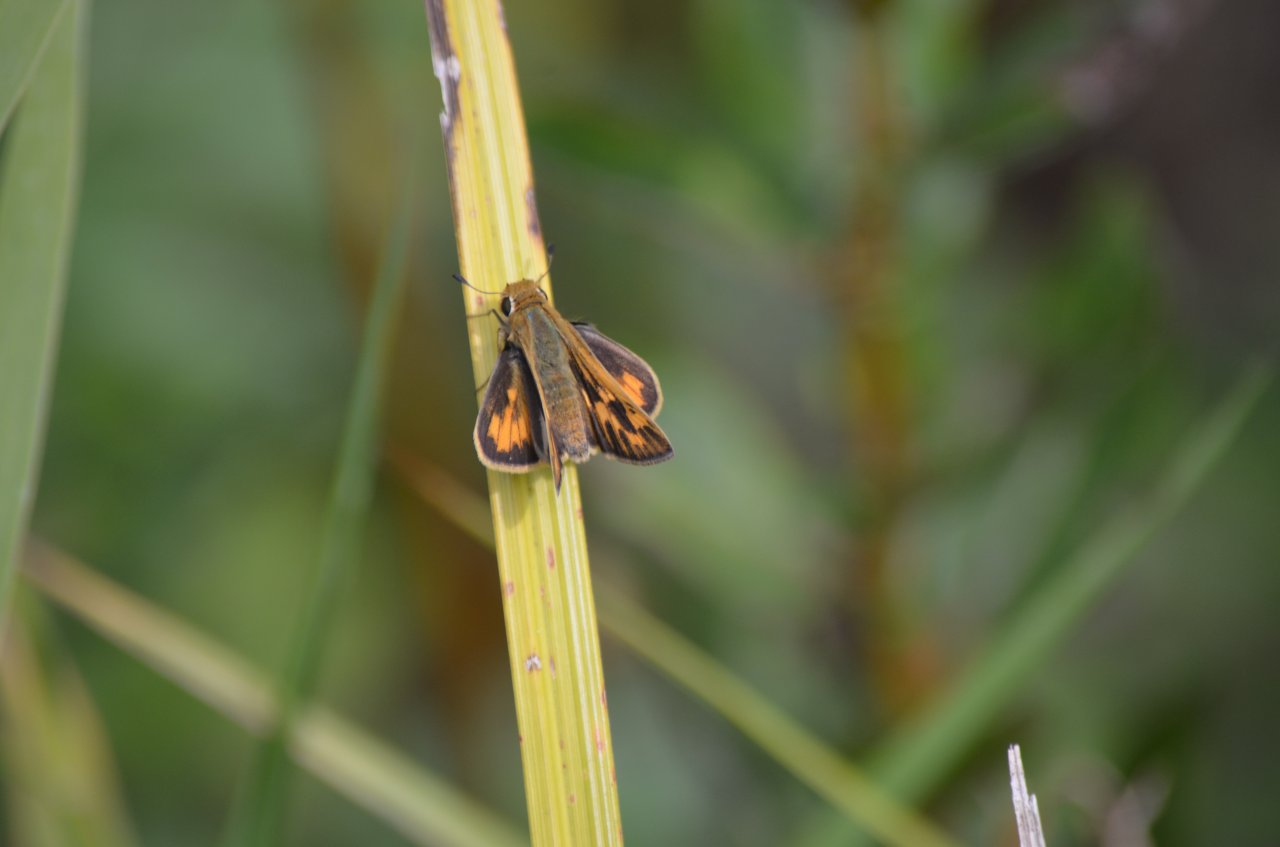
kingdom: Animalia
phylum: Arthropoda
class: Insecta
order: Lepidoptera
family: Hesperiidae
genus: Hylephila
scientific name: Hylephila phyleus
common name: Fiery Skipper
